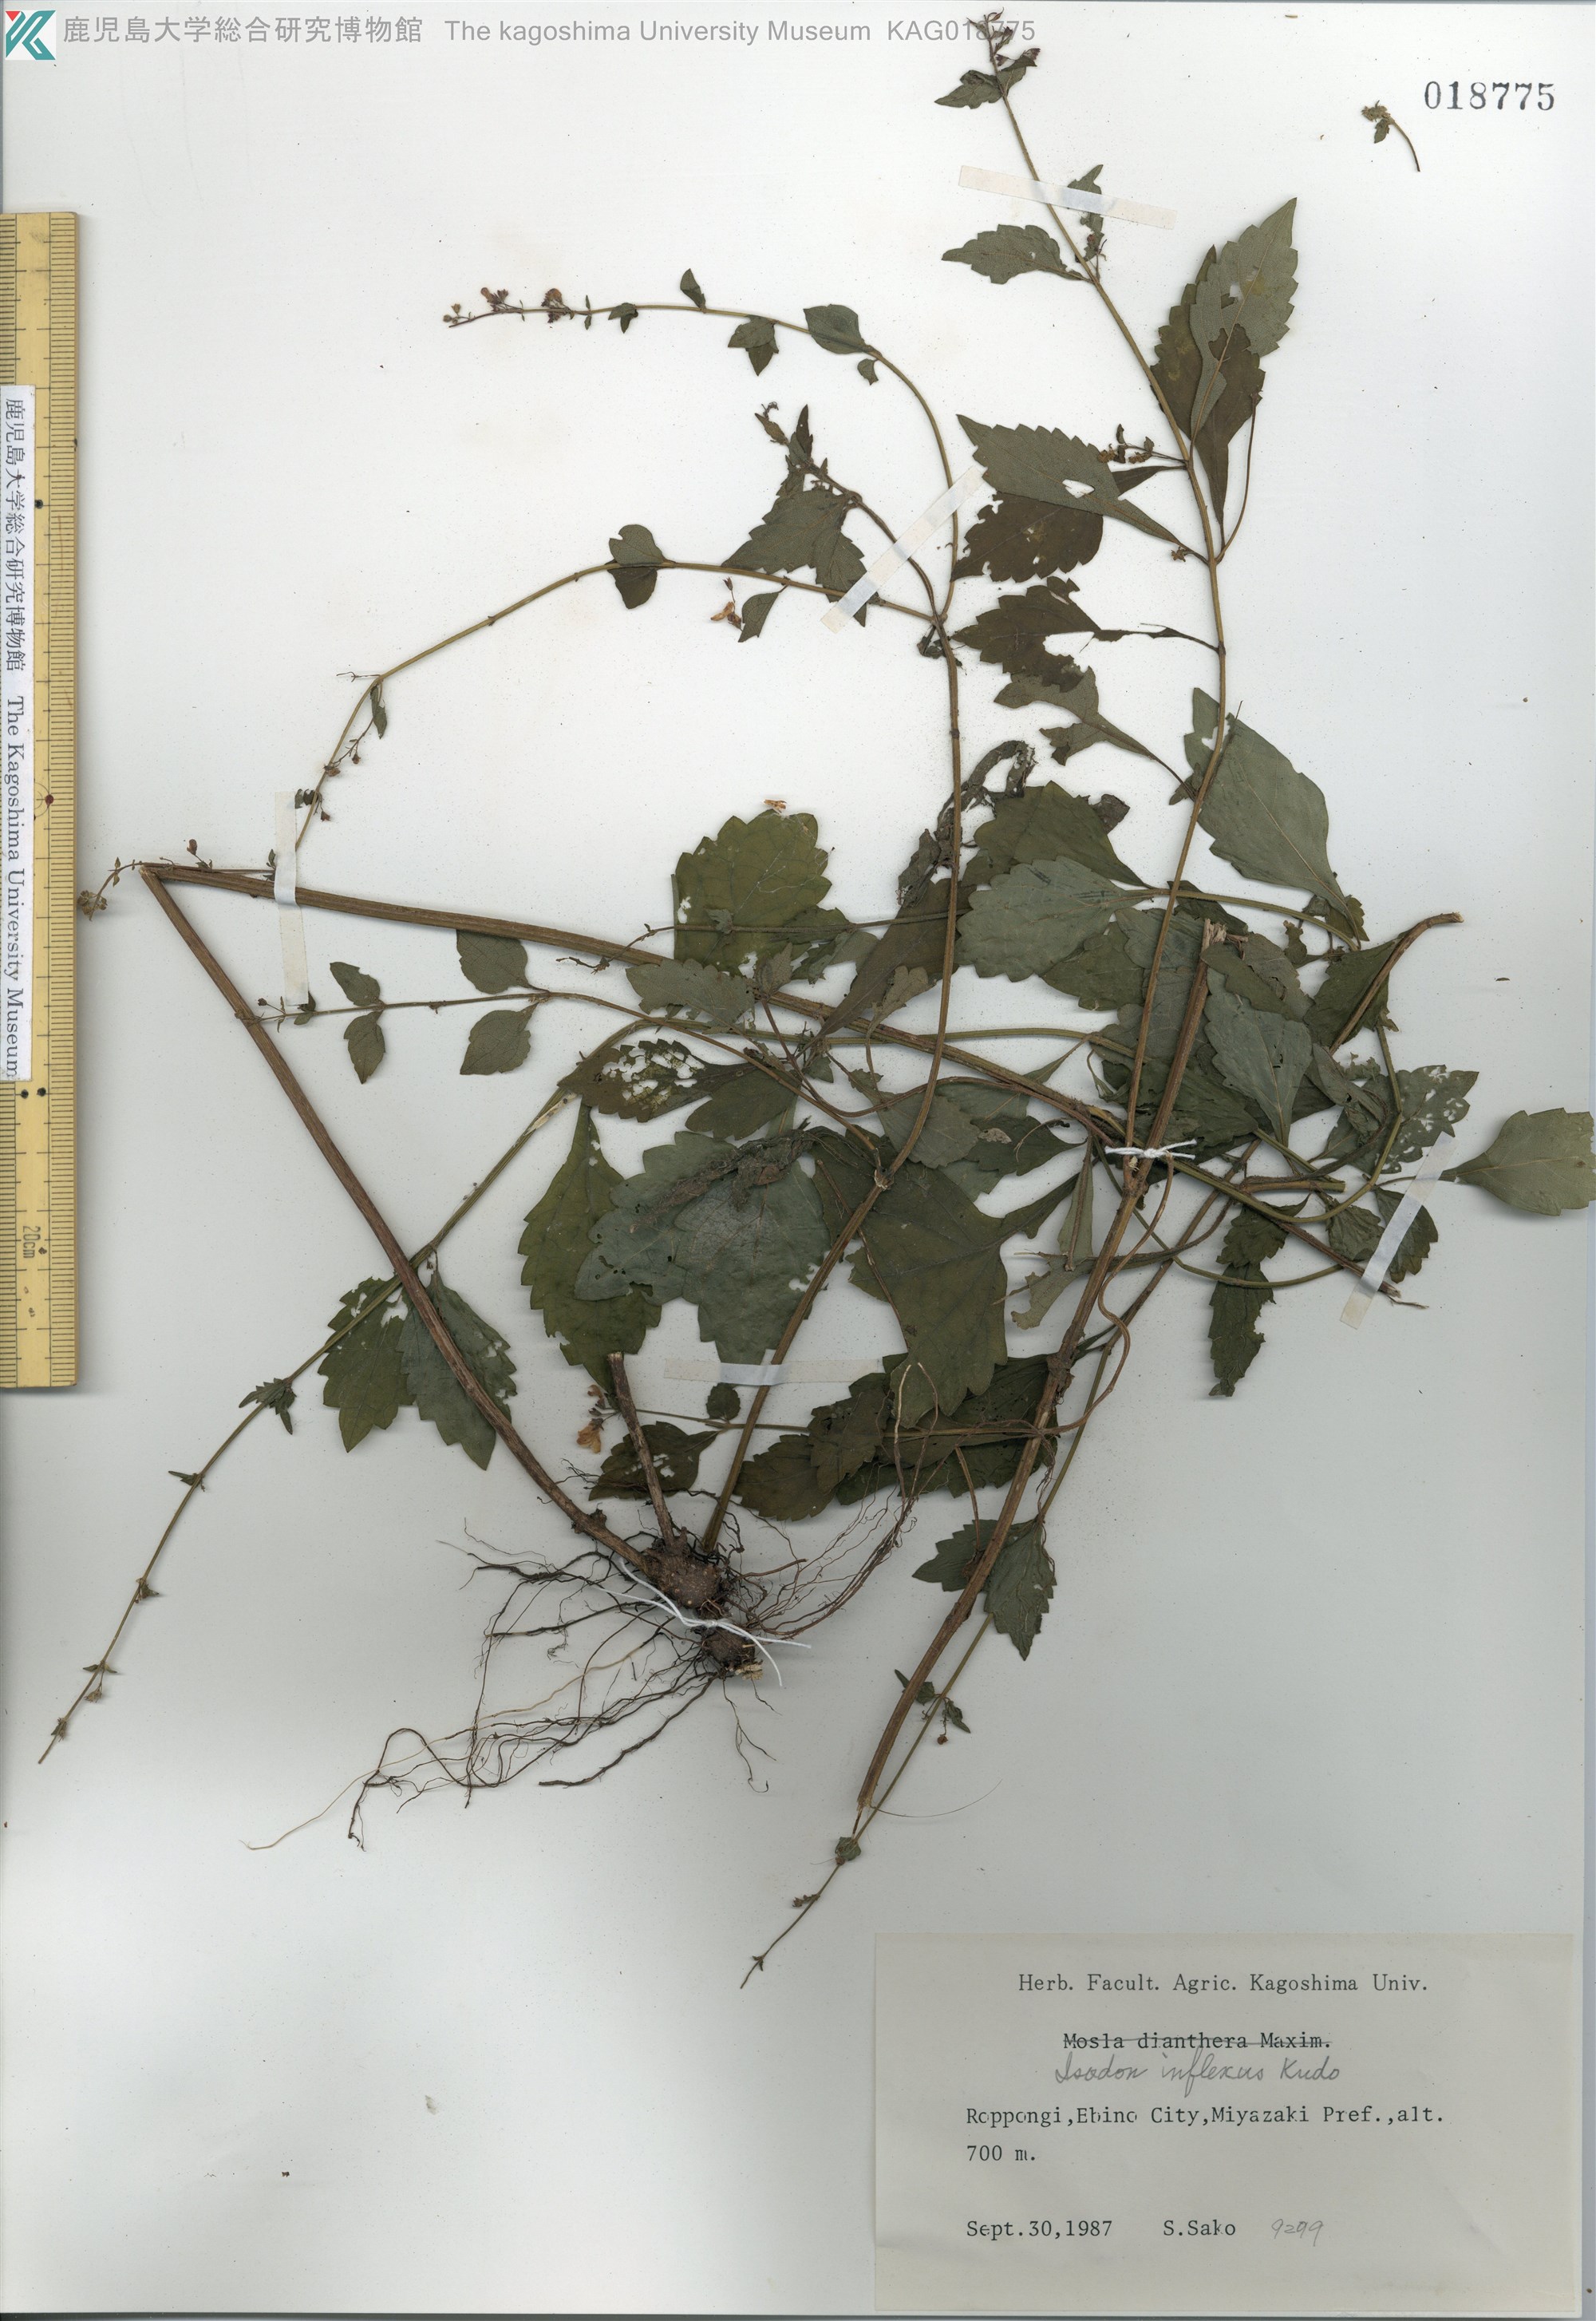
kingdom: Plantae
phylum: Tracheophyta
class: Magnoliopsida
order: Lamiales
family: Lamiaceae
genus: Isodon
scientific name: Isodon inflexus
